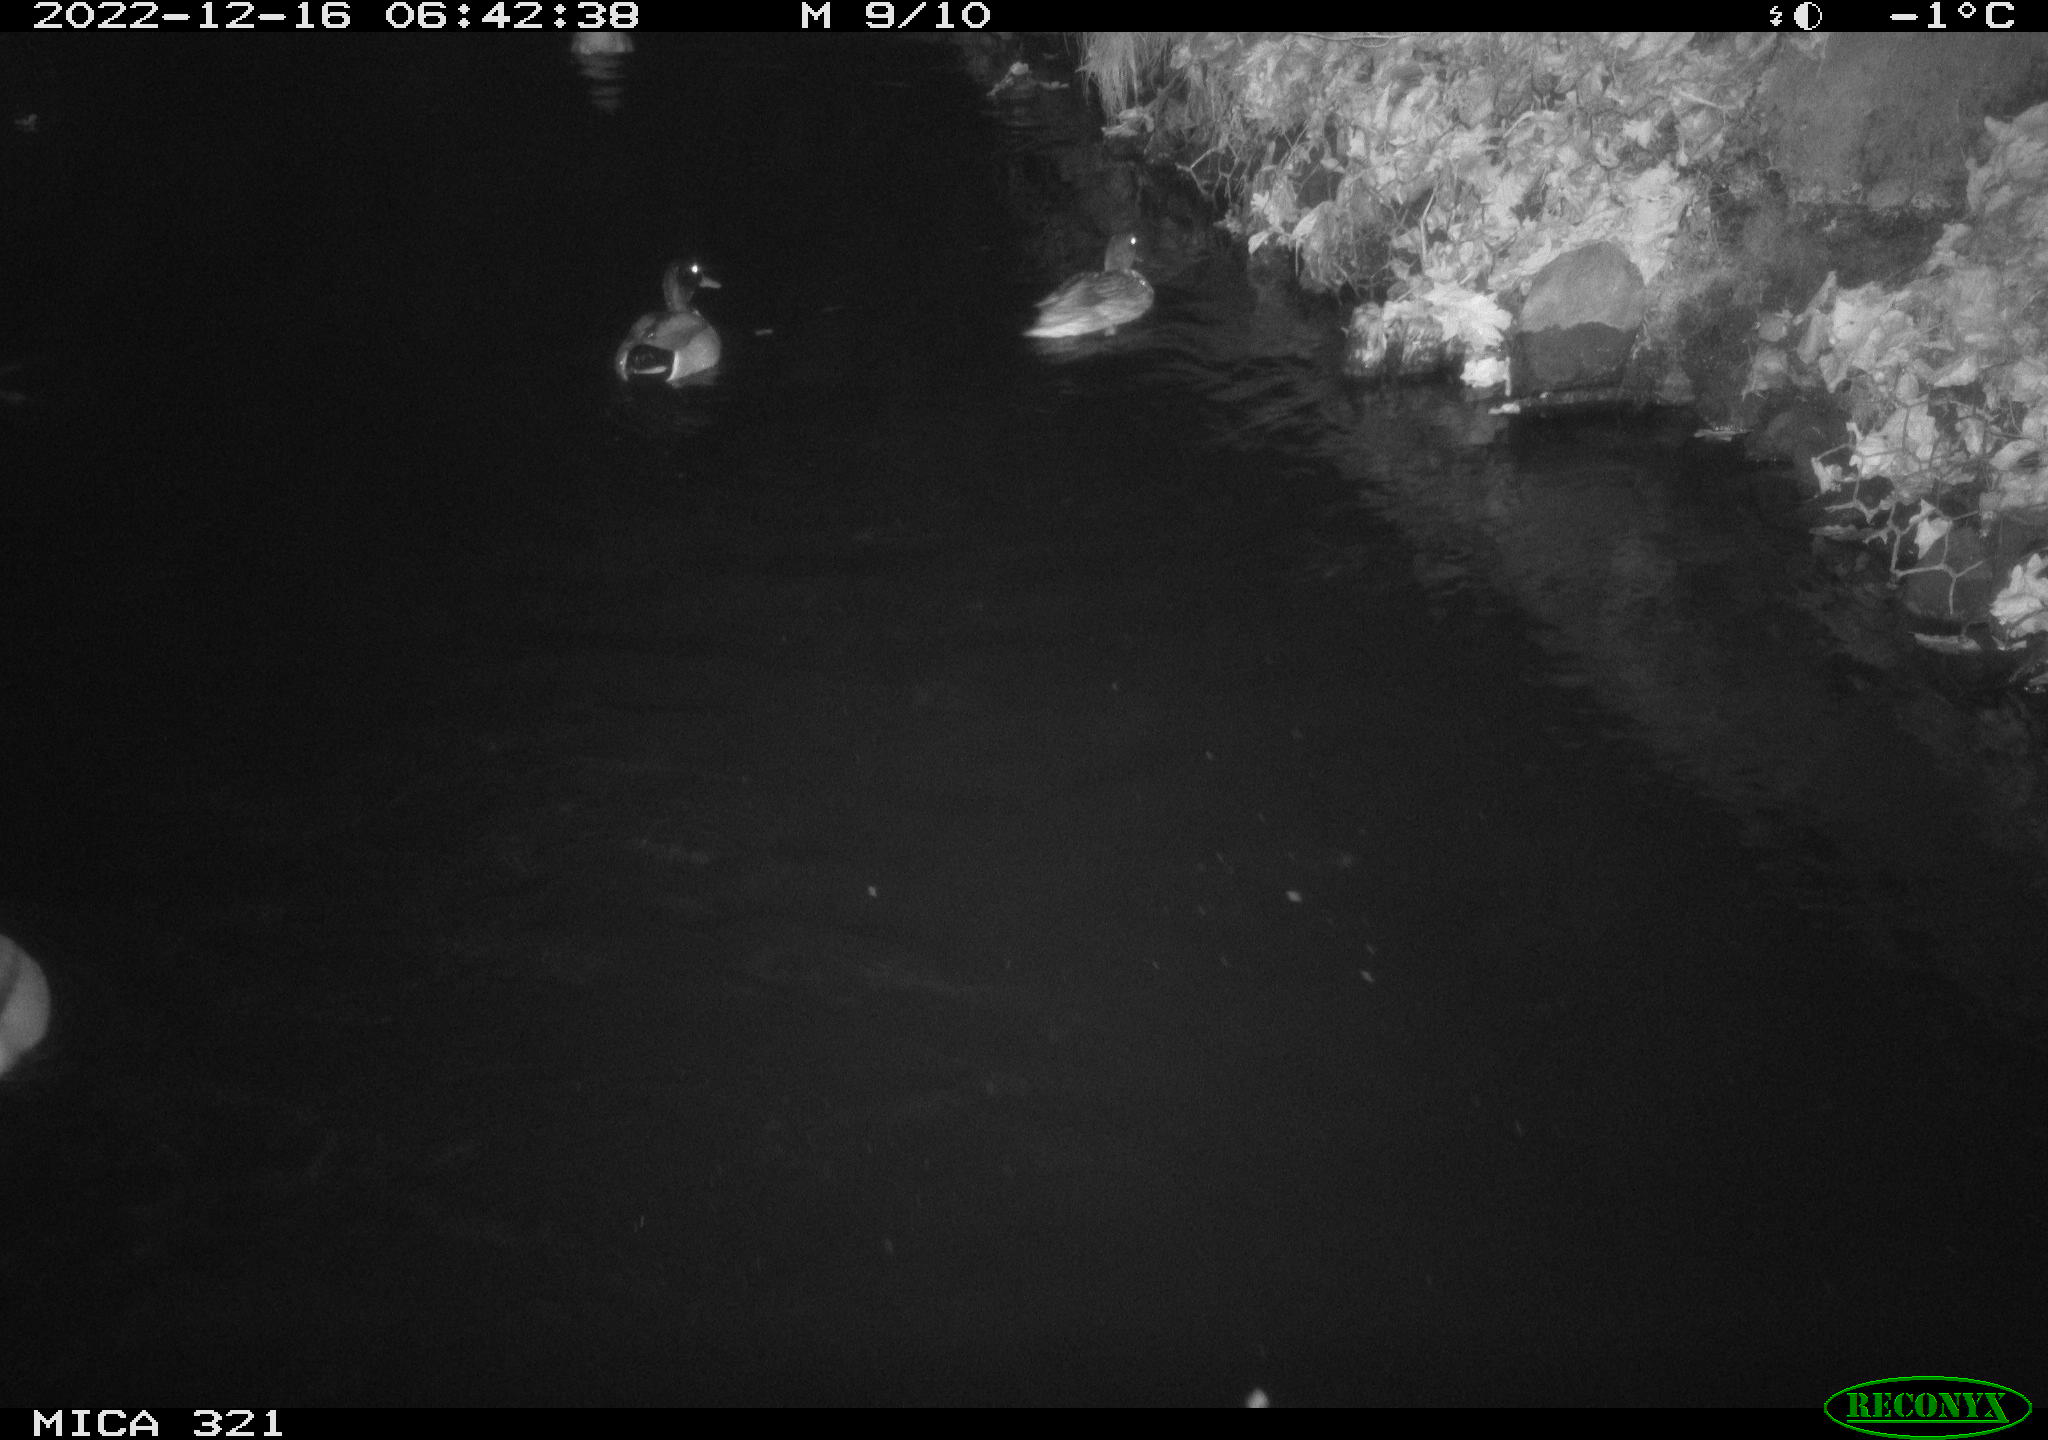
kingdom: Animalia
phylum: Chordata
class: Aves
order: Anseriformes
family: Anatidae
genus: Anas
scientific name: Anas
